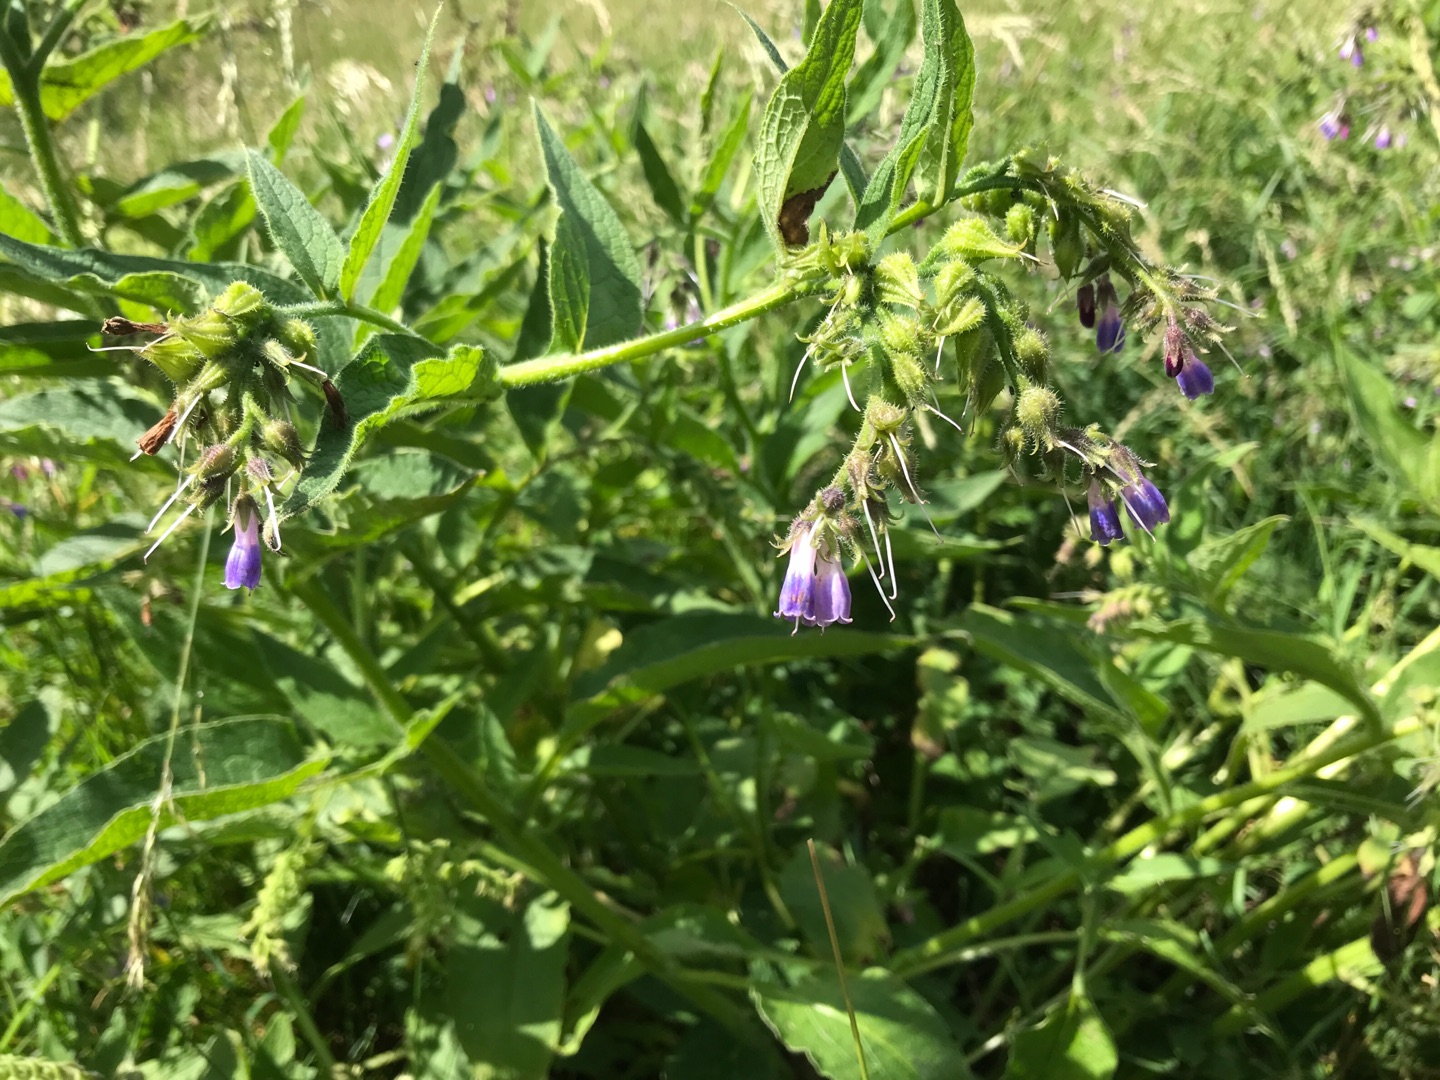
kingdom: Plantae
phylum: Tracheophyta
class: Magnoliopsida
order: Boraginales
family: Boraginaceae
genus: Symphytum
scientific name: Symphytum uplandicum
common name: Foder-kulsukker
